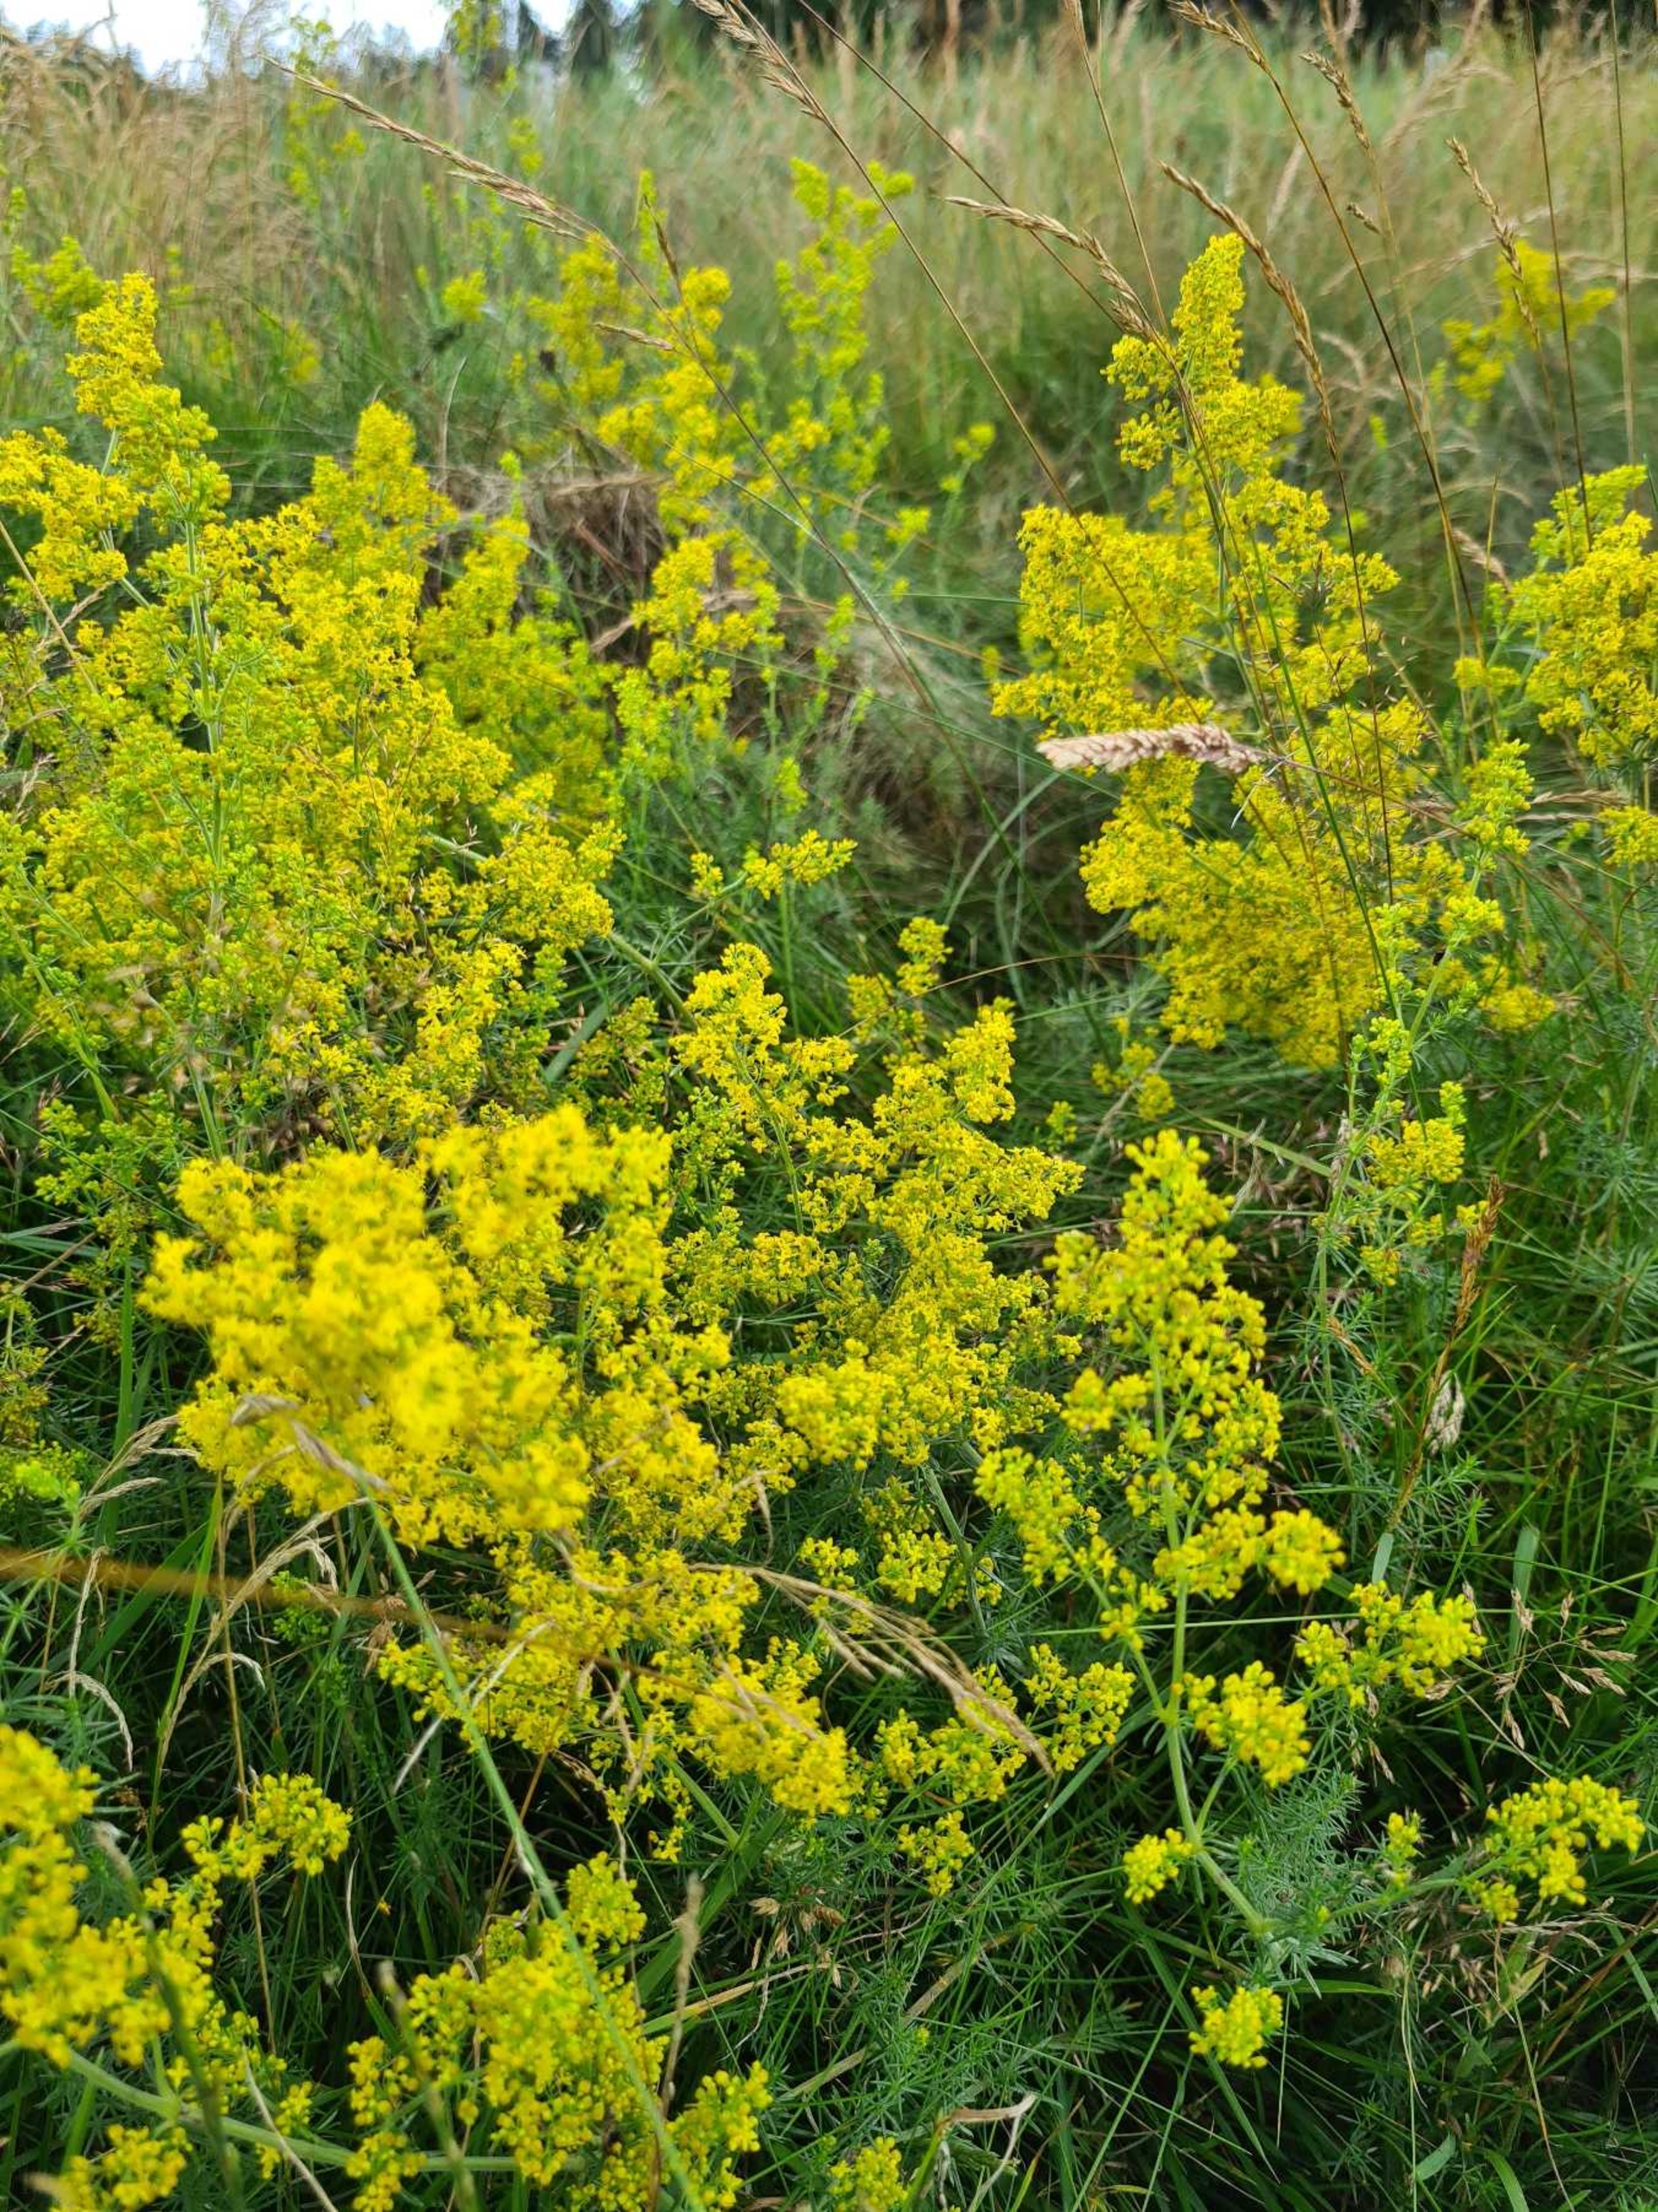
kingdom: Plantae
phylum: Tracheophyta
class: Magnoliopsida
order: Gentianales
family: Rubiaceae
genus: Galium
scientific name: Galium verum
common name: Gul snerre
